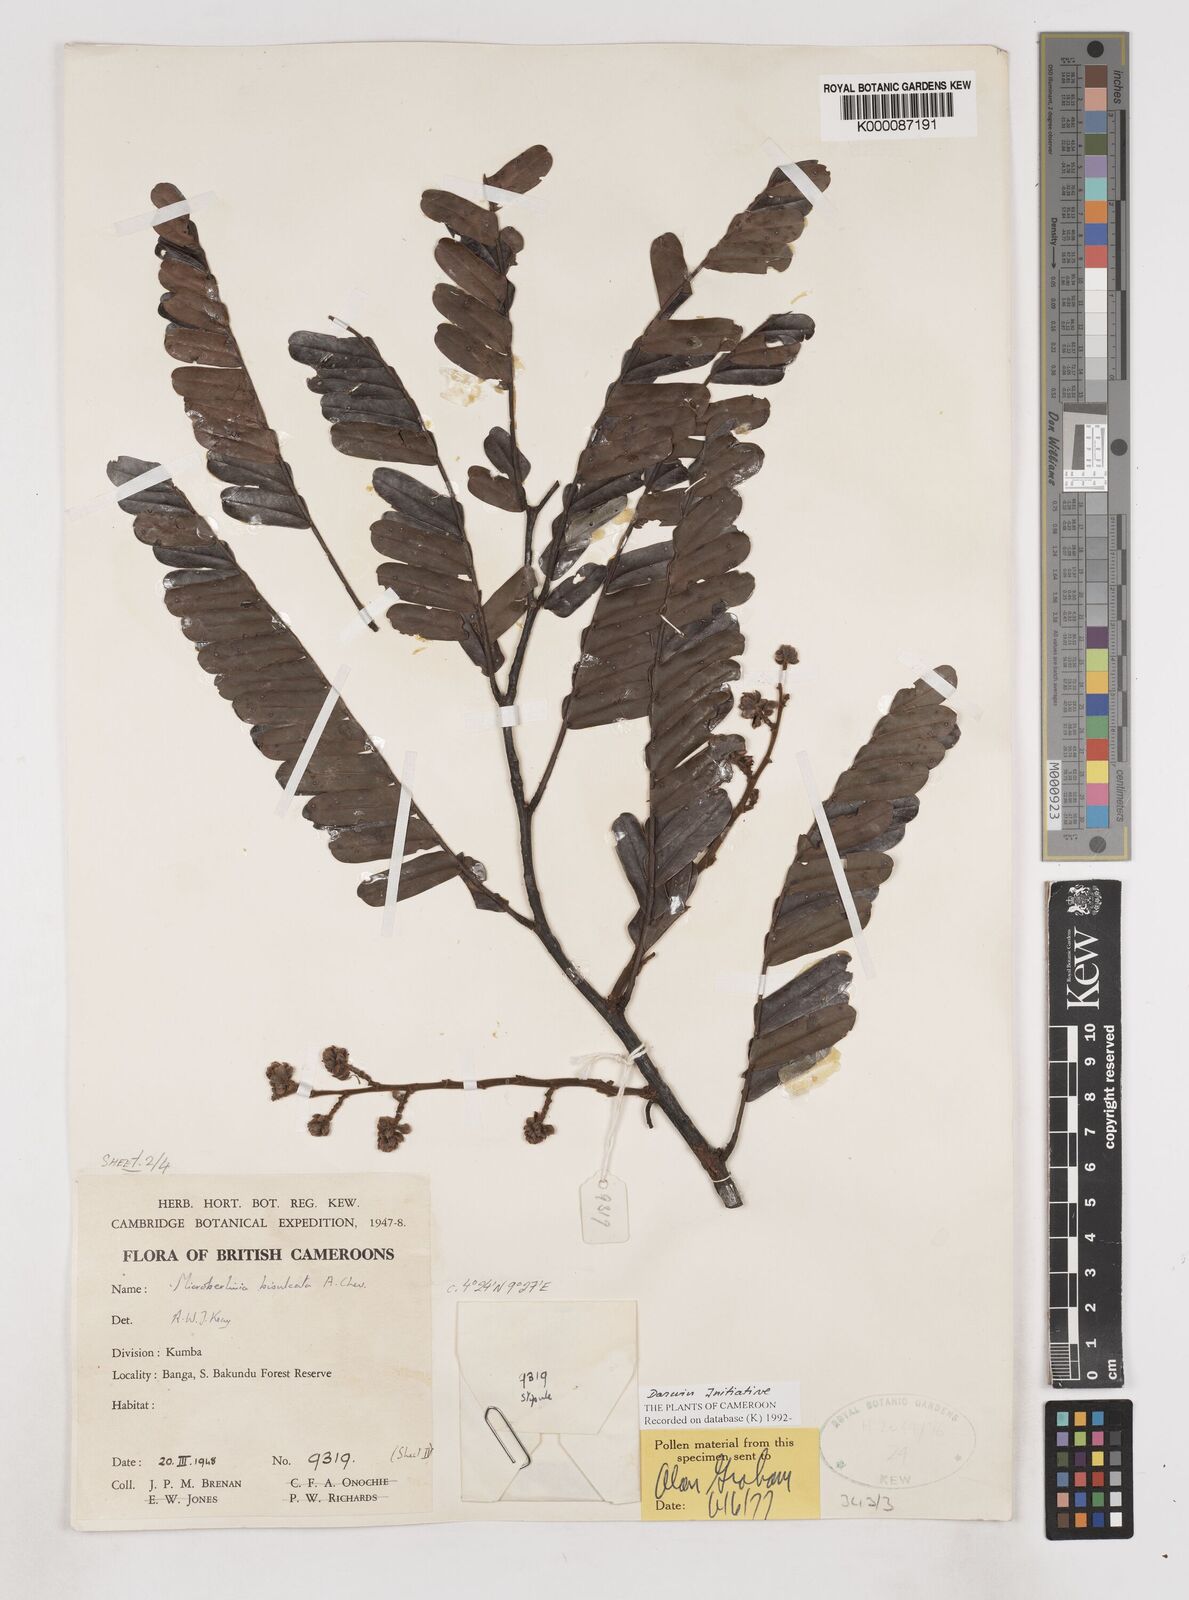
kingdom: Plantae
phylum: Tracheophyta
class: Magnoliopsida
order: Fabales
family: Fabaceae
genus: Microberlinia
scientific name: Microberlinia bisulcata
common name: Zingana
